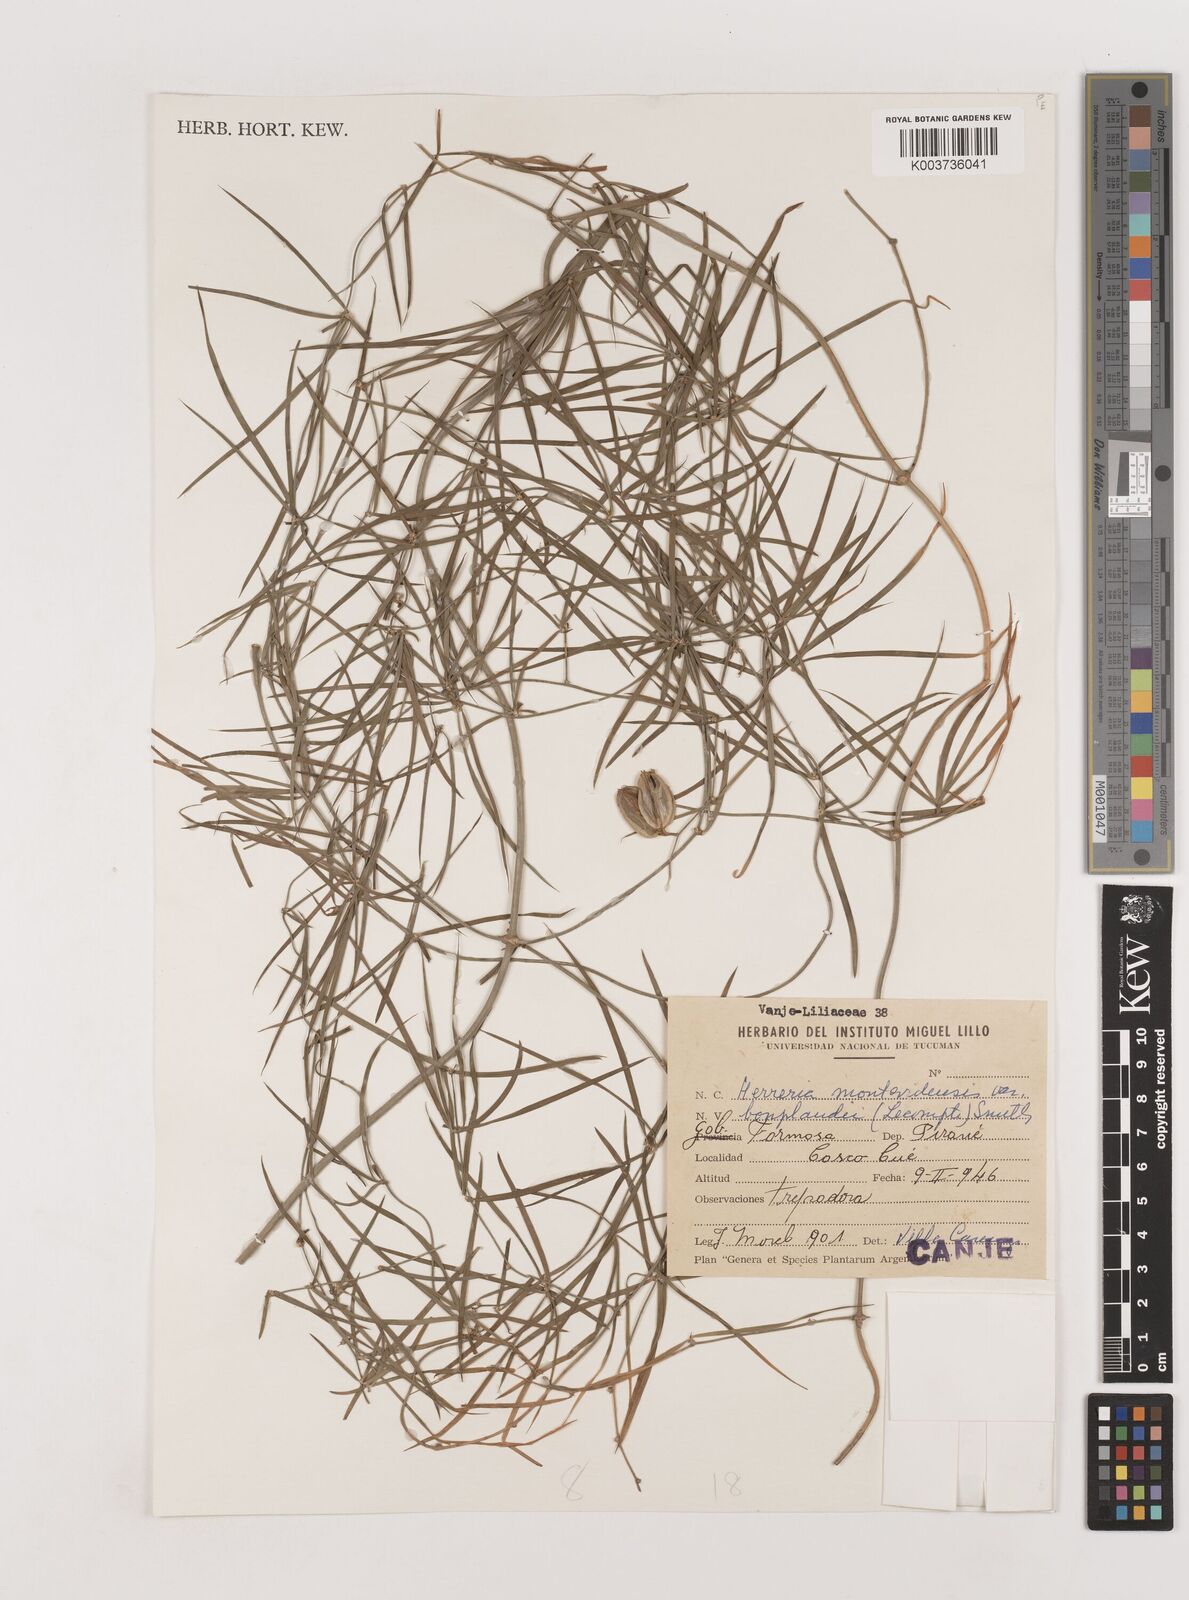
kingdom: Plantae
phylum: Tracheophyta
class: Liliopsida
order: Asparagales
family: Asparagaceae
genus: Herreria
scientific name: Herreria montevidensis
